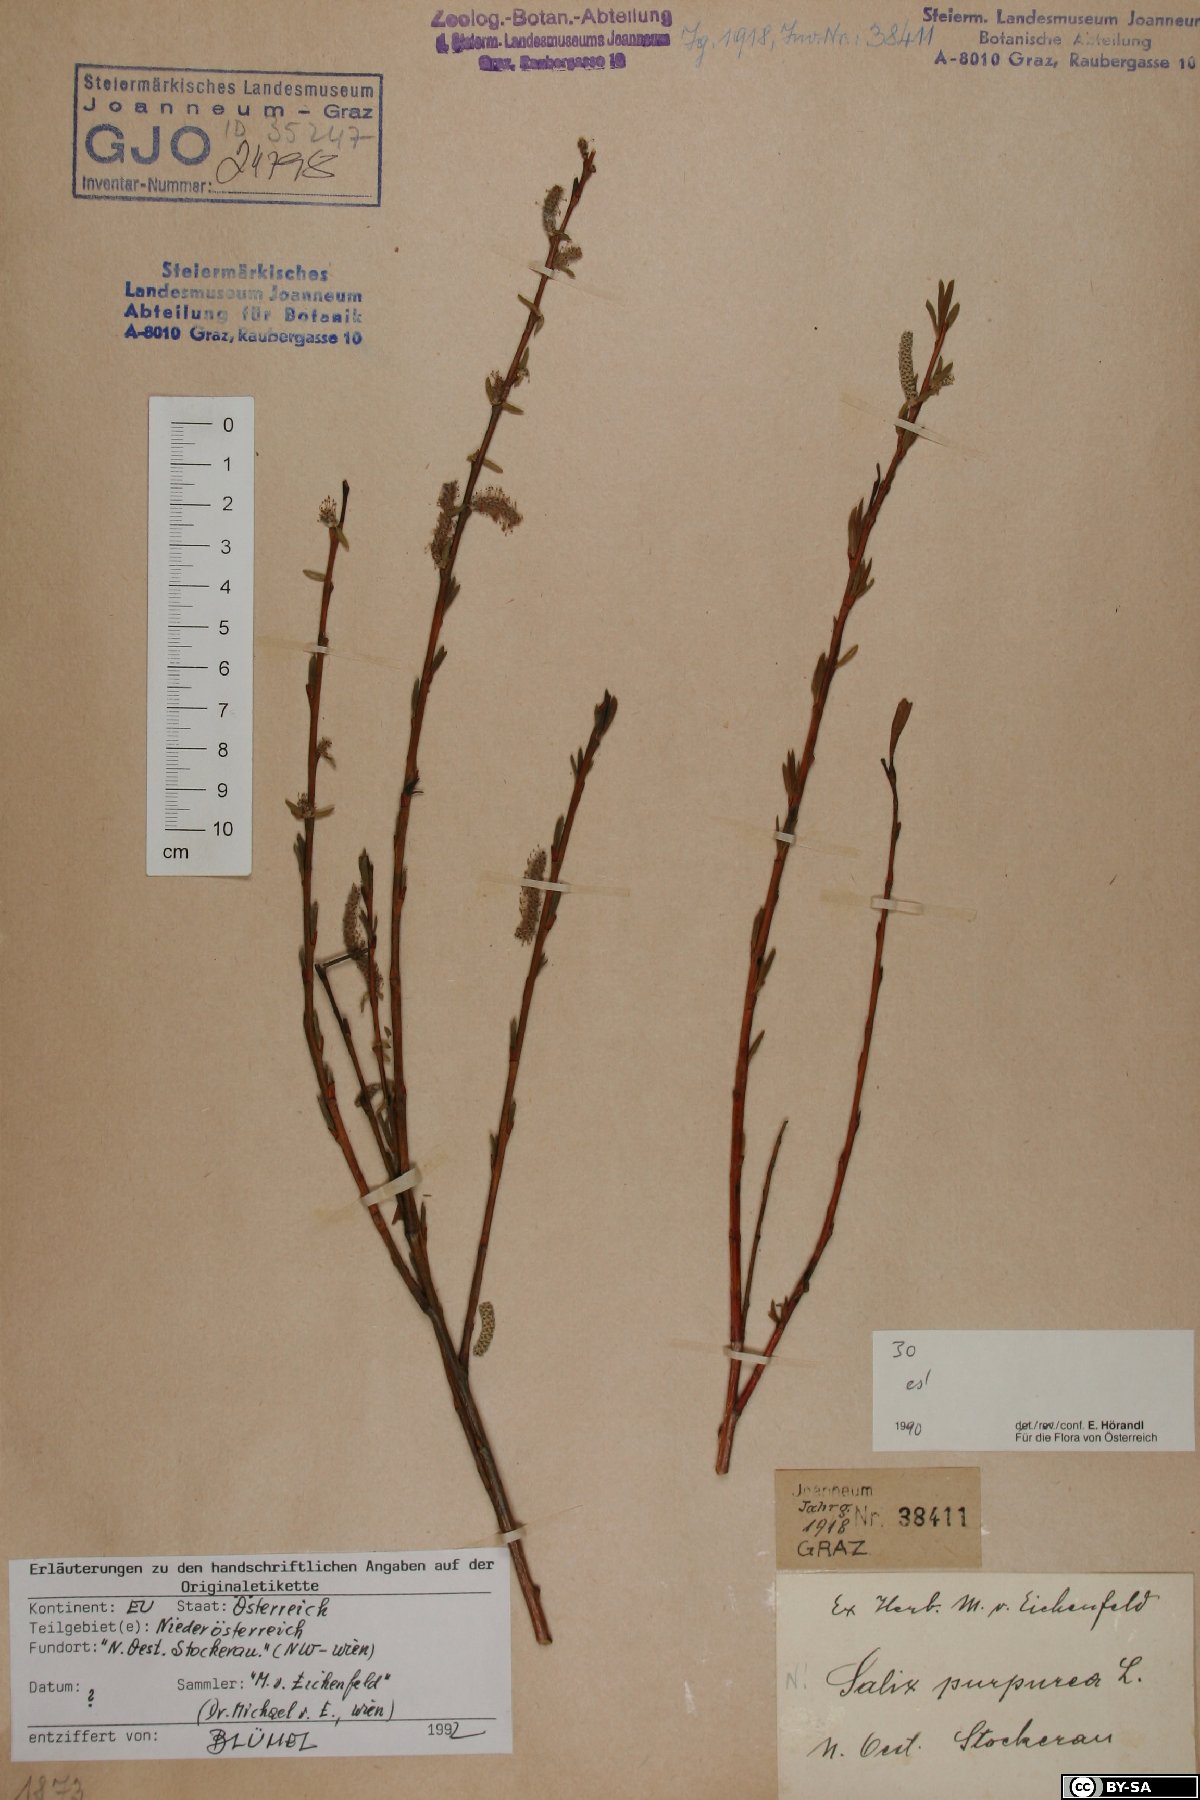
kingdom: Plantae
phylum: Tracheophyta
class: Magnoliopsida
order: Malpighiales
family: Salicaceae
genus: Salix
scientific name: Salix purpurea
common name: Purple willow
